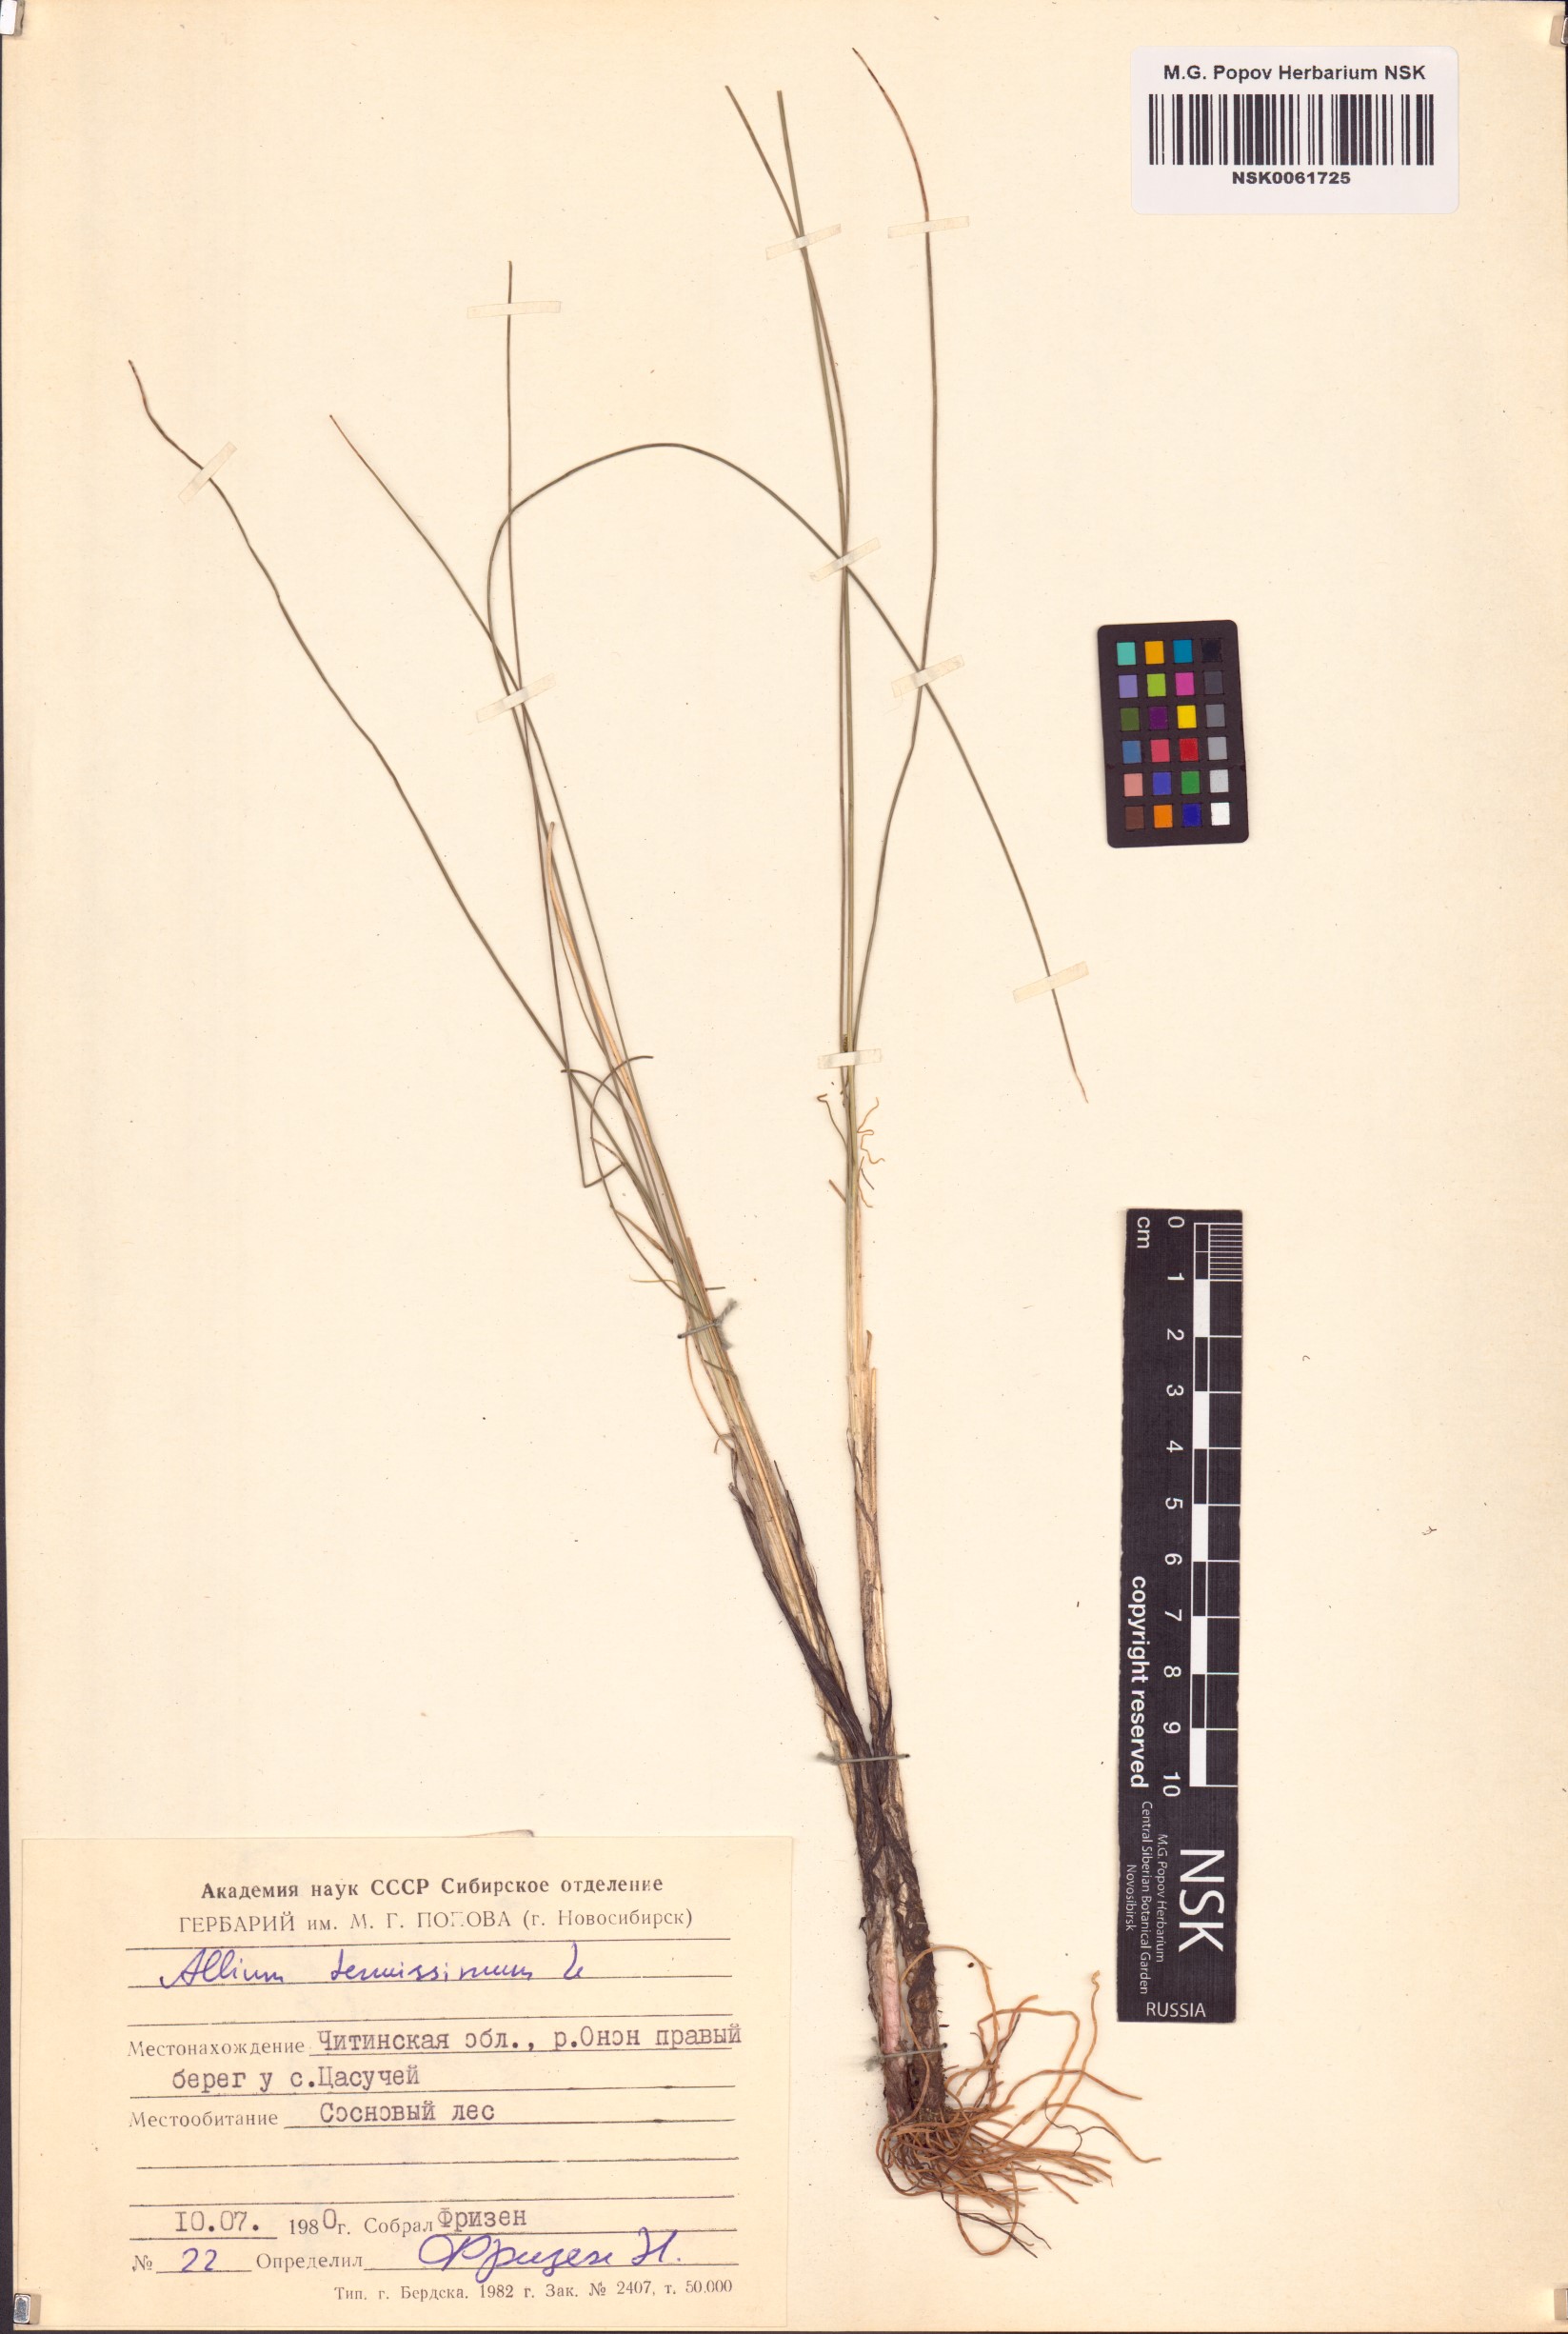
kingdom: Plantae
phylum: Tracheophyta
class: Liliopsida
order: Asparagales
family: Amaryllidaceae
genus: Allium
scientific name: Allium tenuissimum
